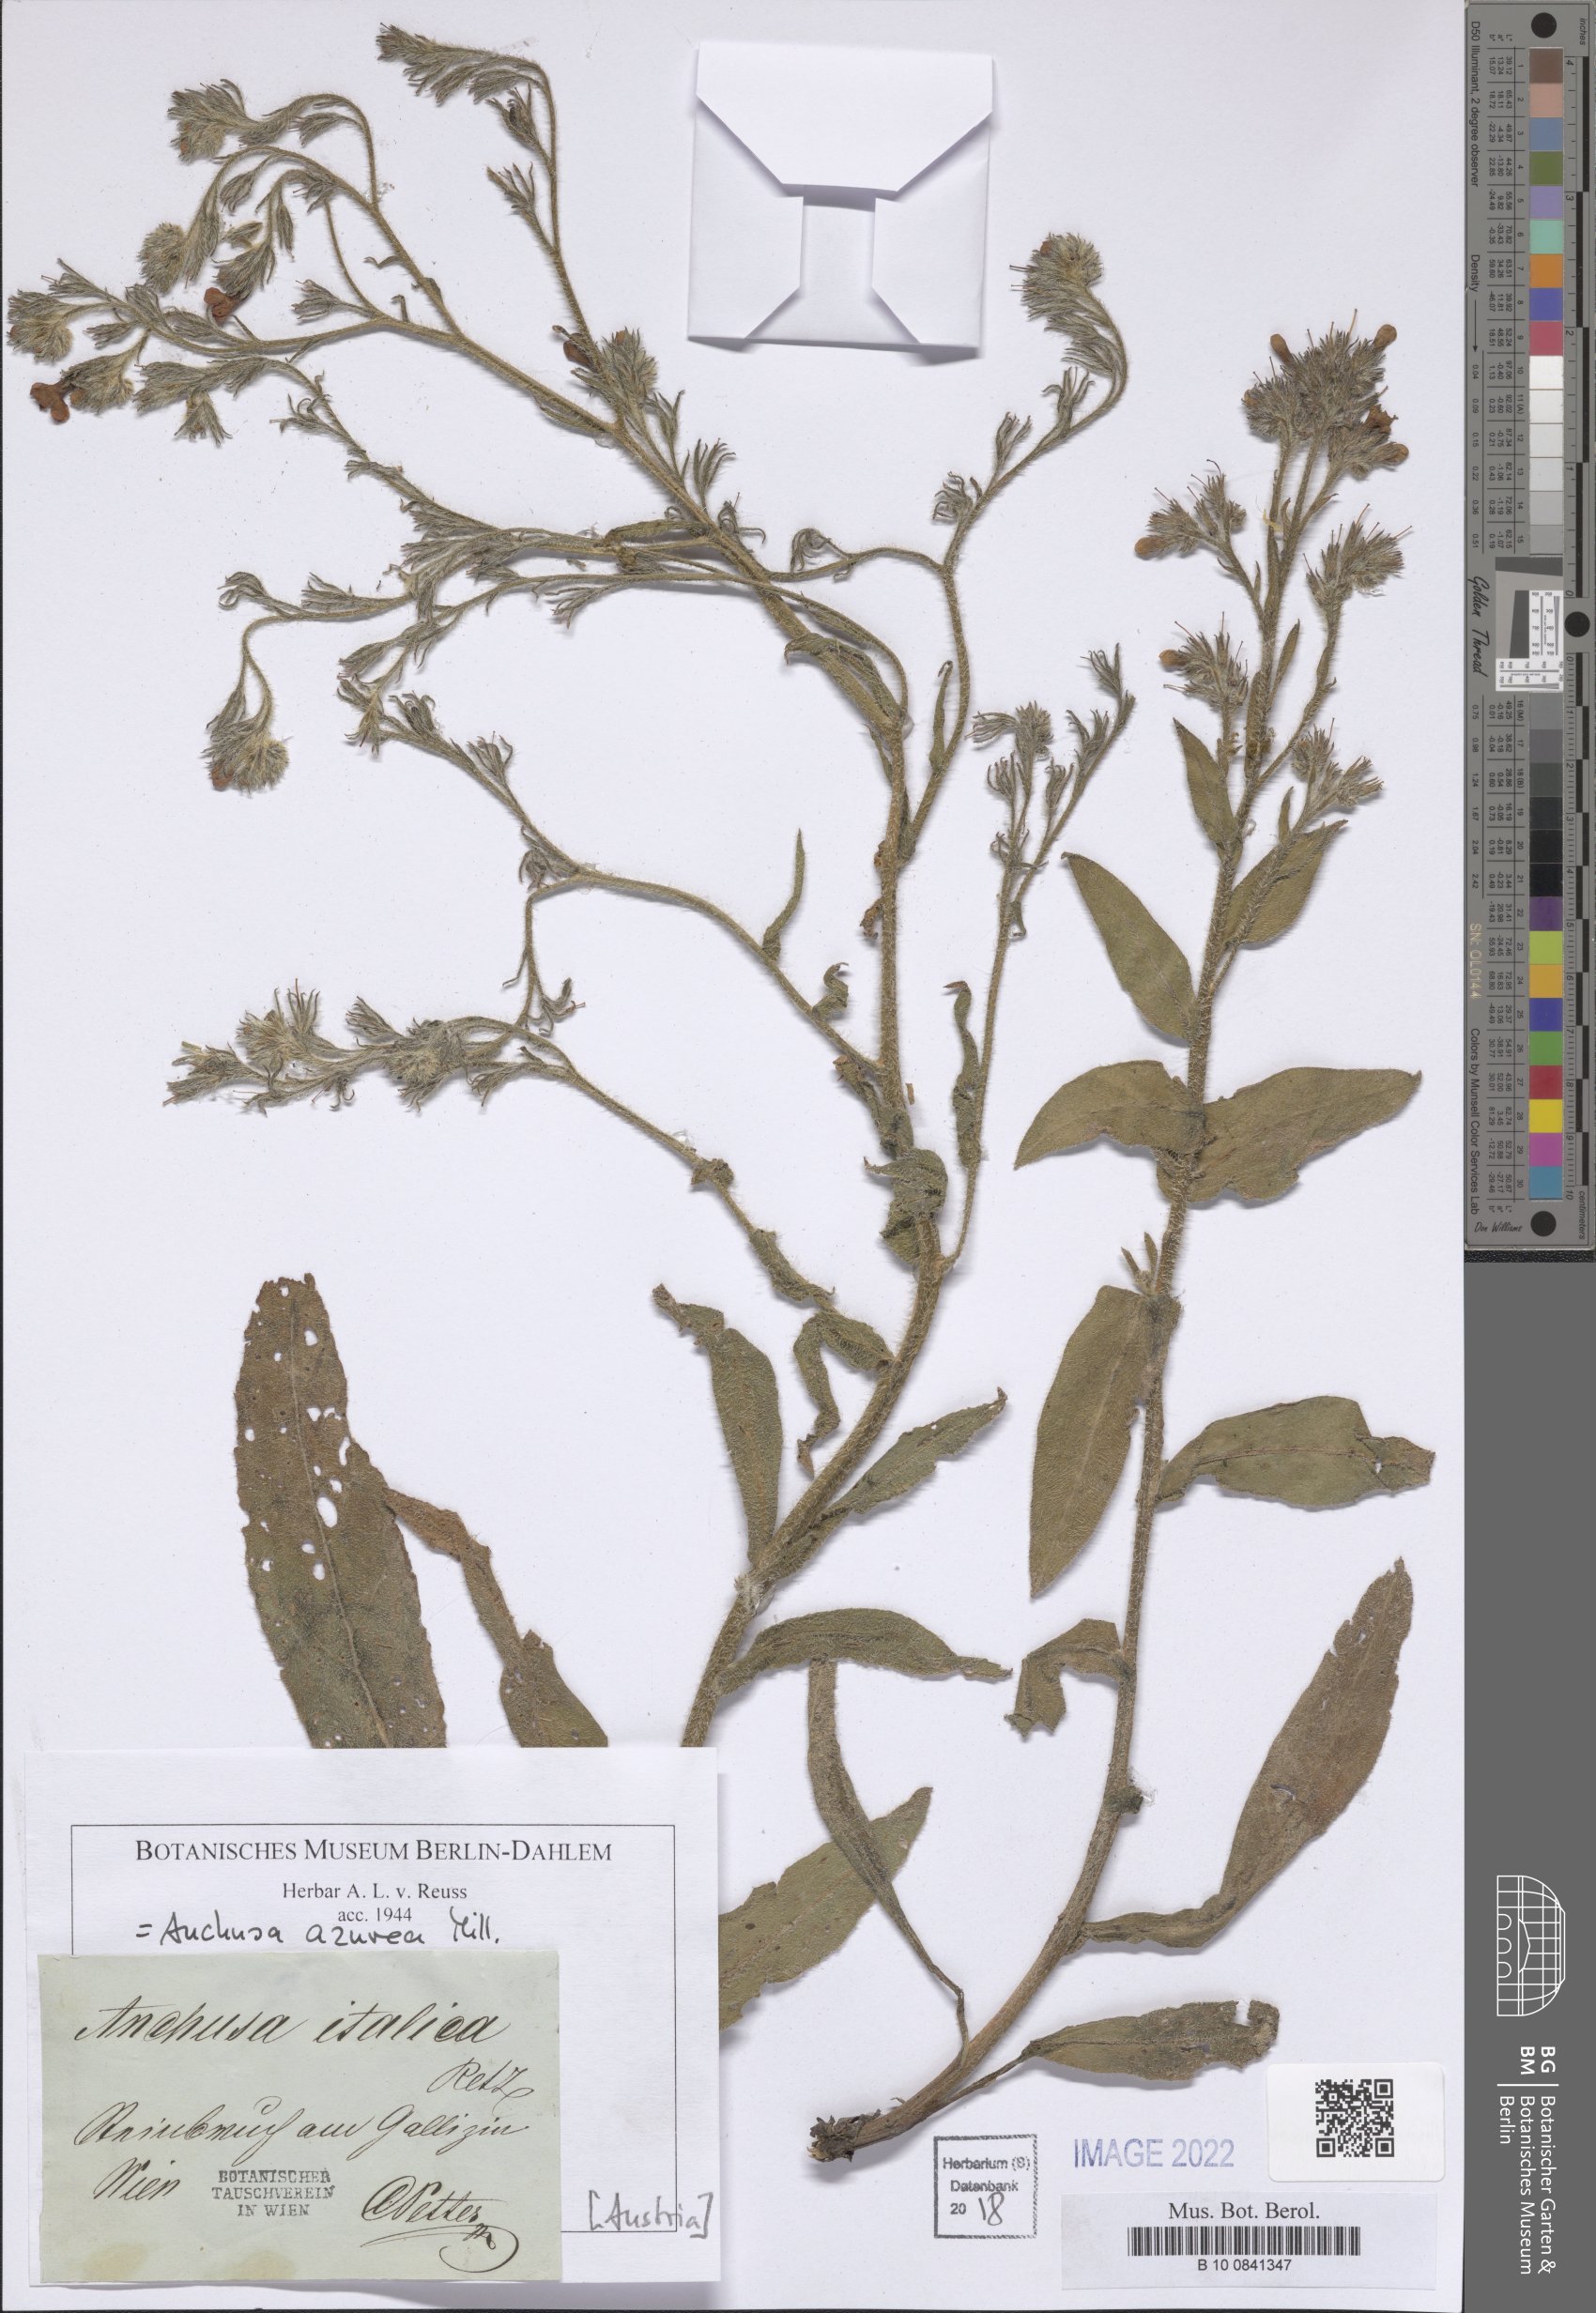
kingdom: Plantae
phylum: Tracheophyta
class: Magnoliopsida
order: Boraginales
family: Boraginaceae
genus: Anchusa
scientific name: Anchusa azurea
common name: Garden anchusa
